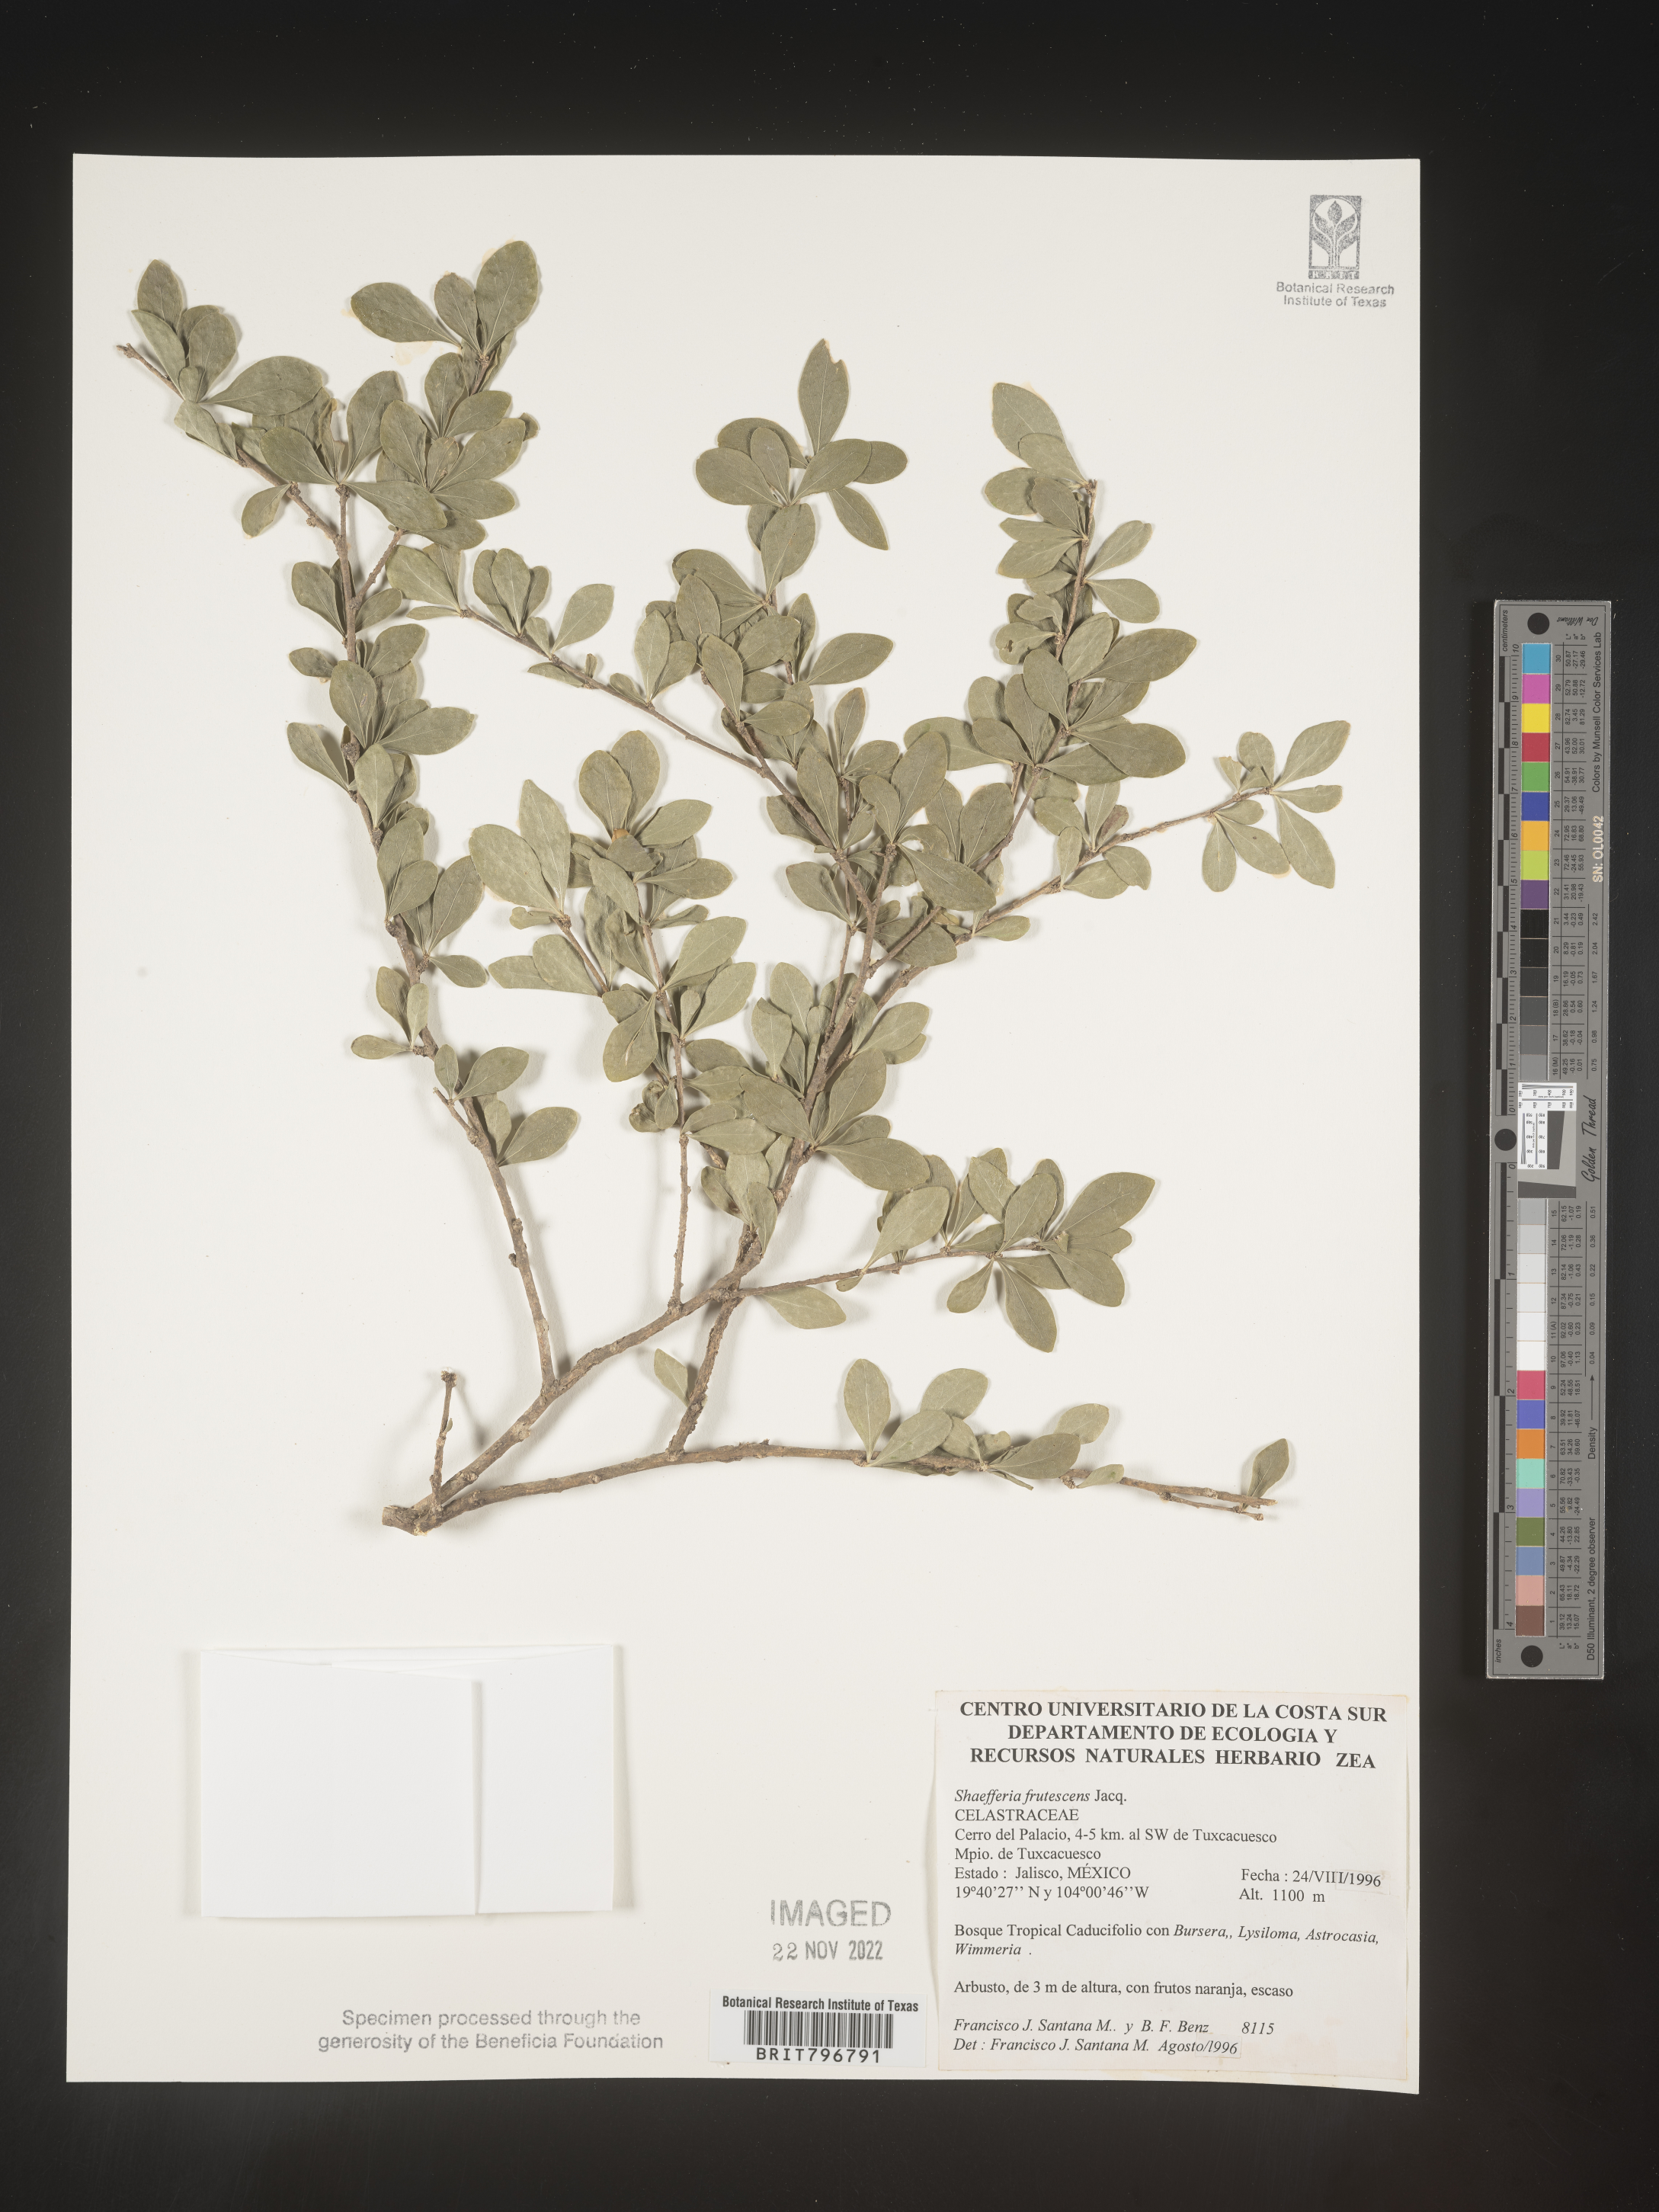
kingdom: Plantae
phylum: Tracheophyta
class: Magnoliopsida
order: Celastrales
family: Celastraceae
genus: Schaefferia
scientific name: Schaefferia
